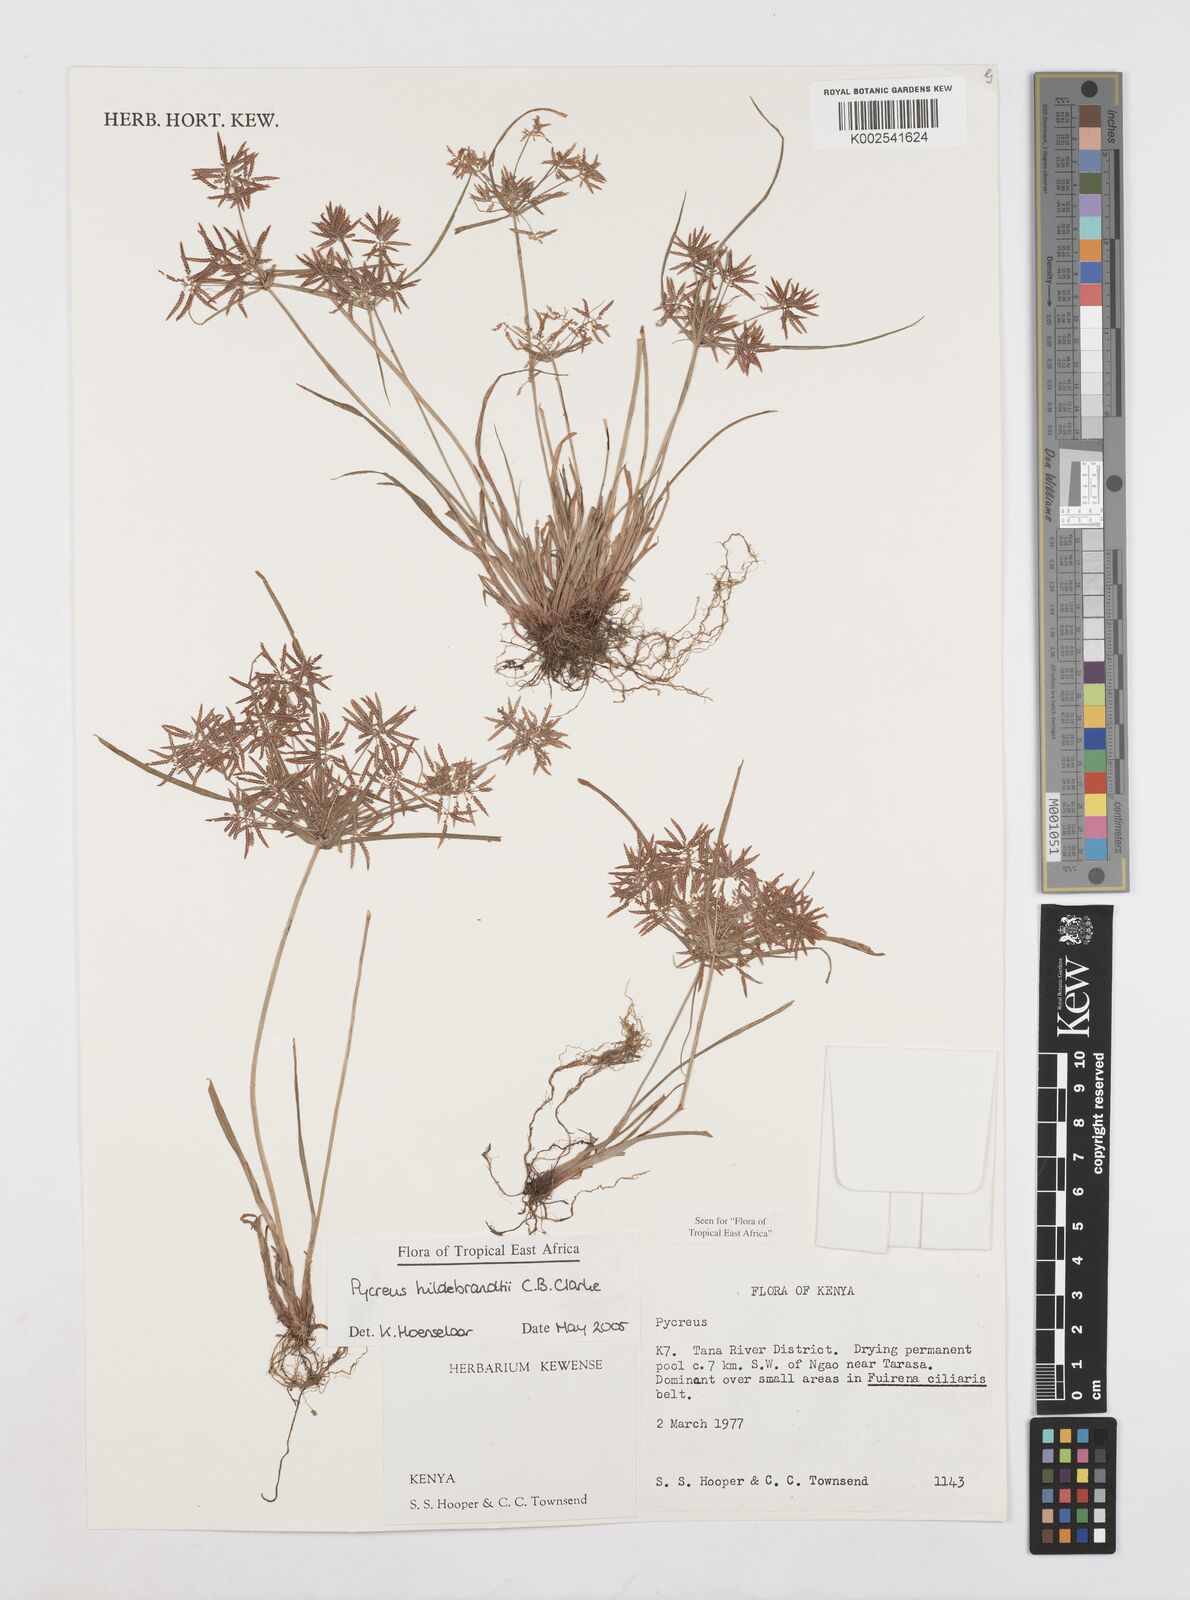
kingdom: Plantae
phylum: Tracheophyta
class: Liliopsida
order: Poales
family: Cyperaceae
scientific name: Cyperaceae
